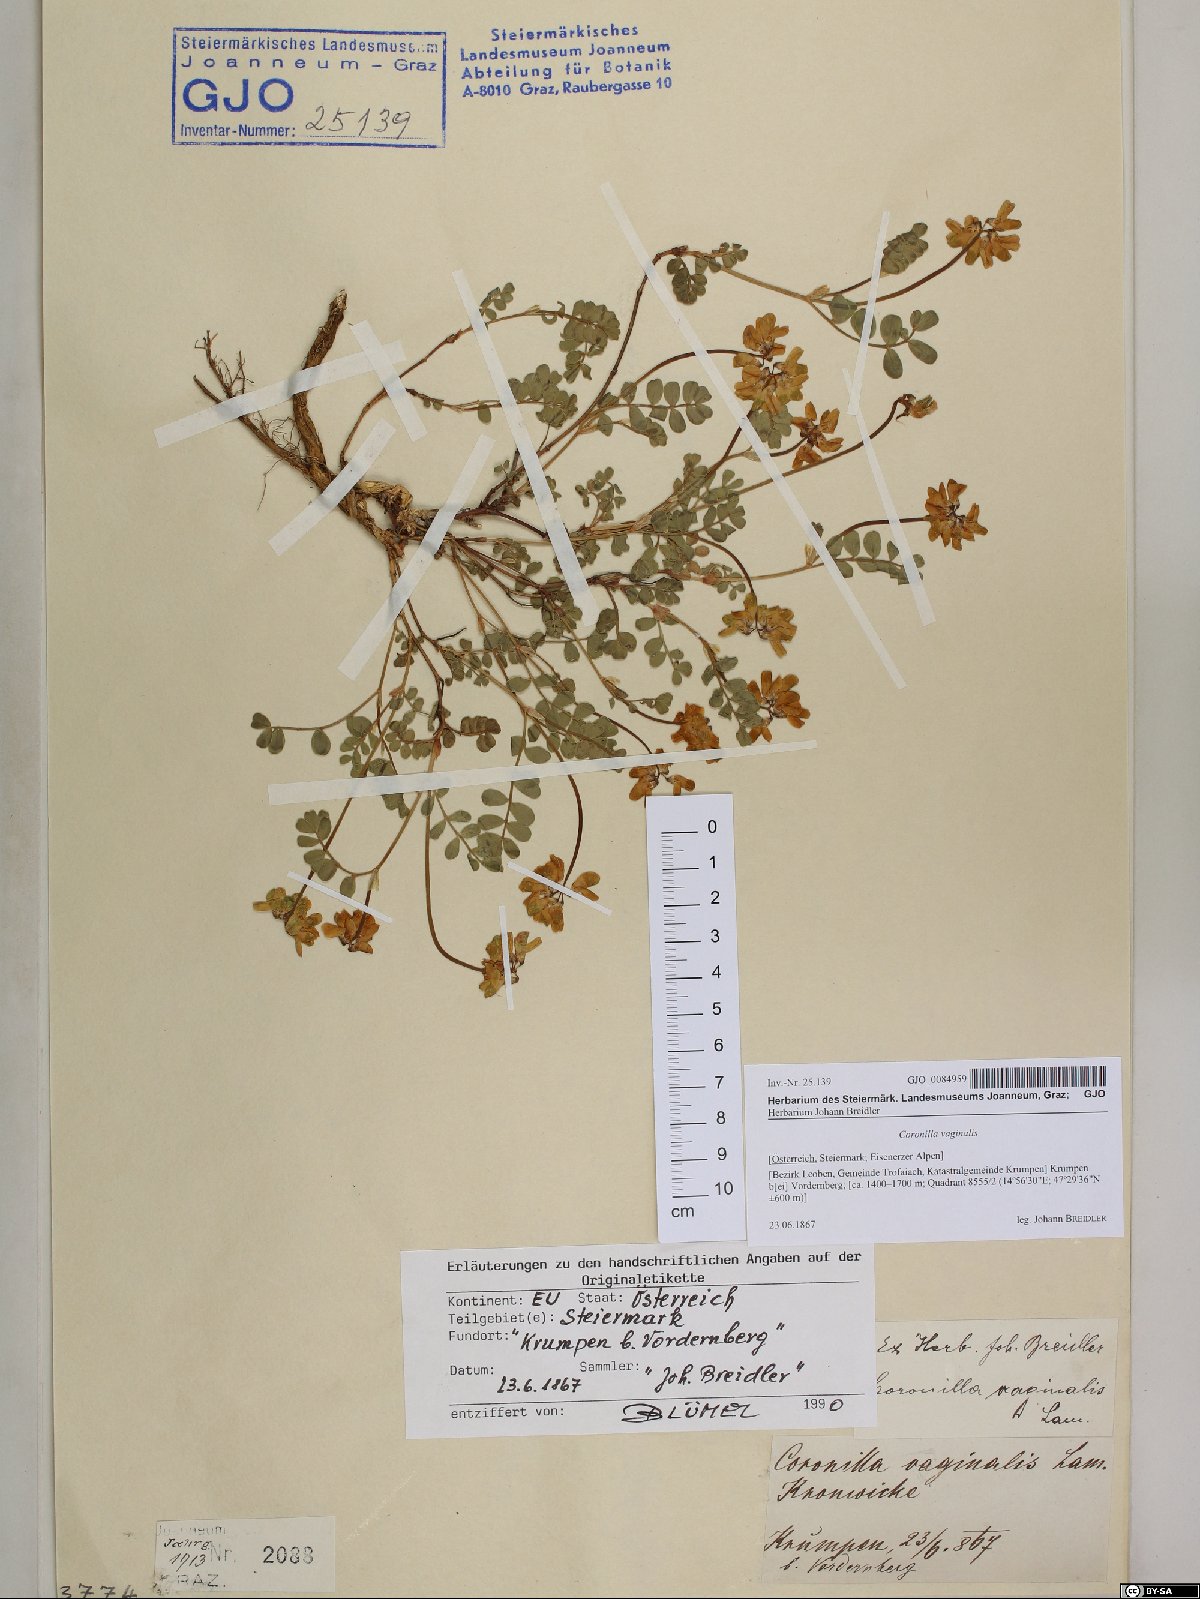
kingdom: Plantae
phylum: Tracheophyta
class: Magnoliopsida
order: Fabales
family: Fabaceae
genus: Coronilla
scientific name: Coronilla vaginalis
